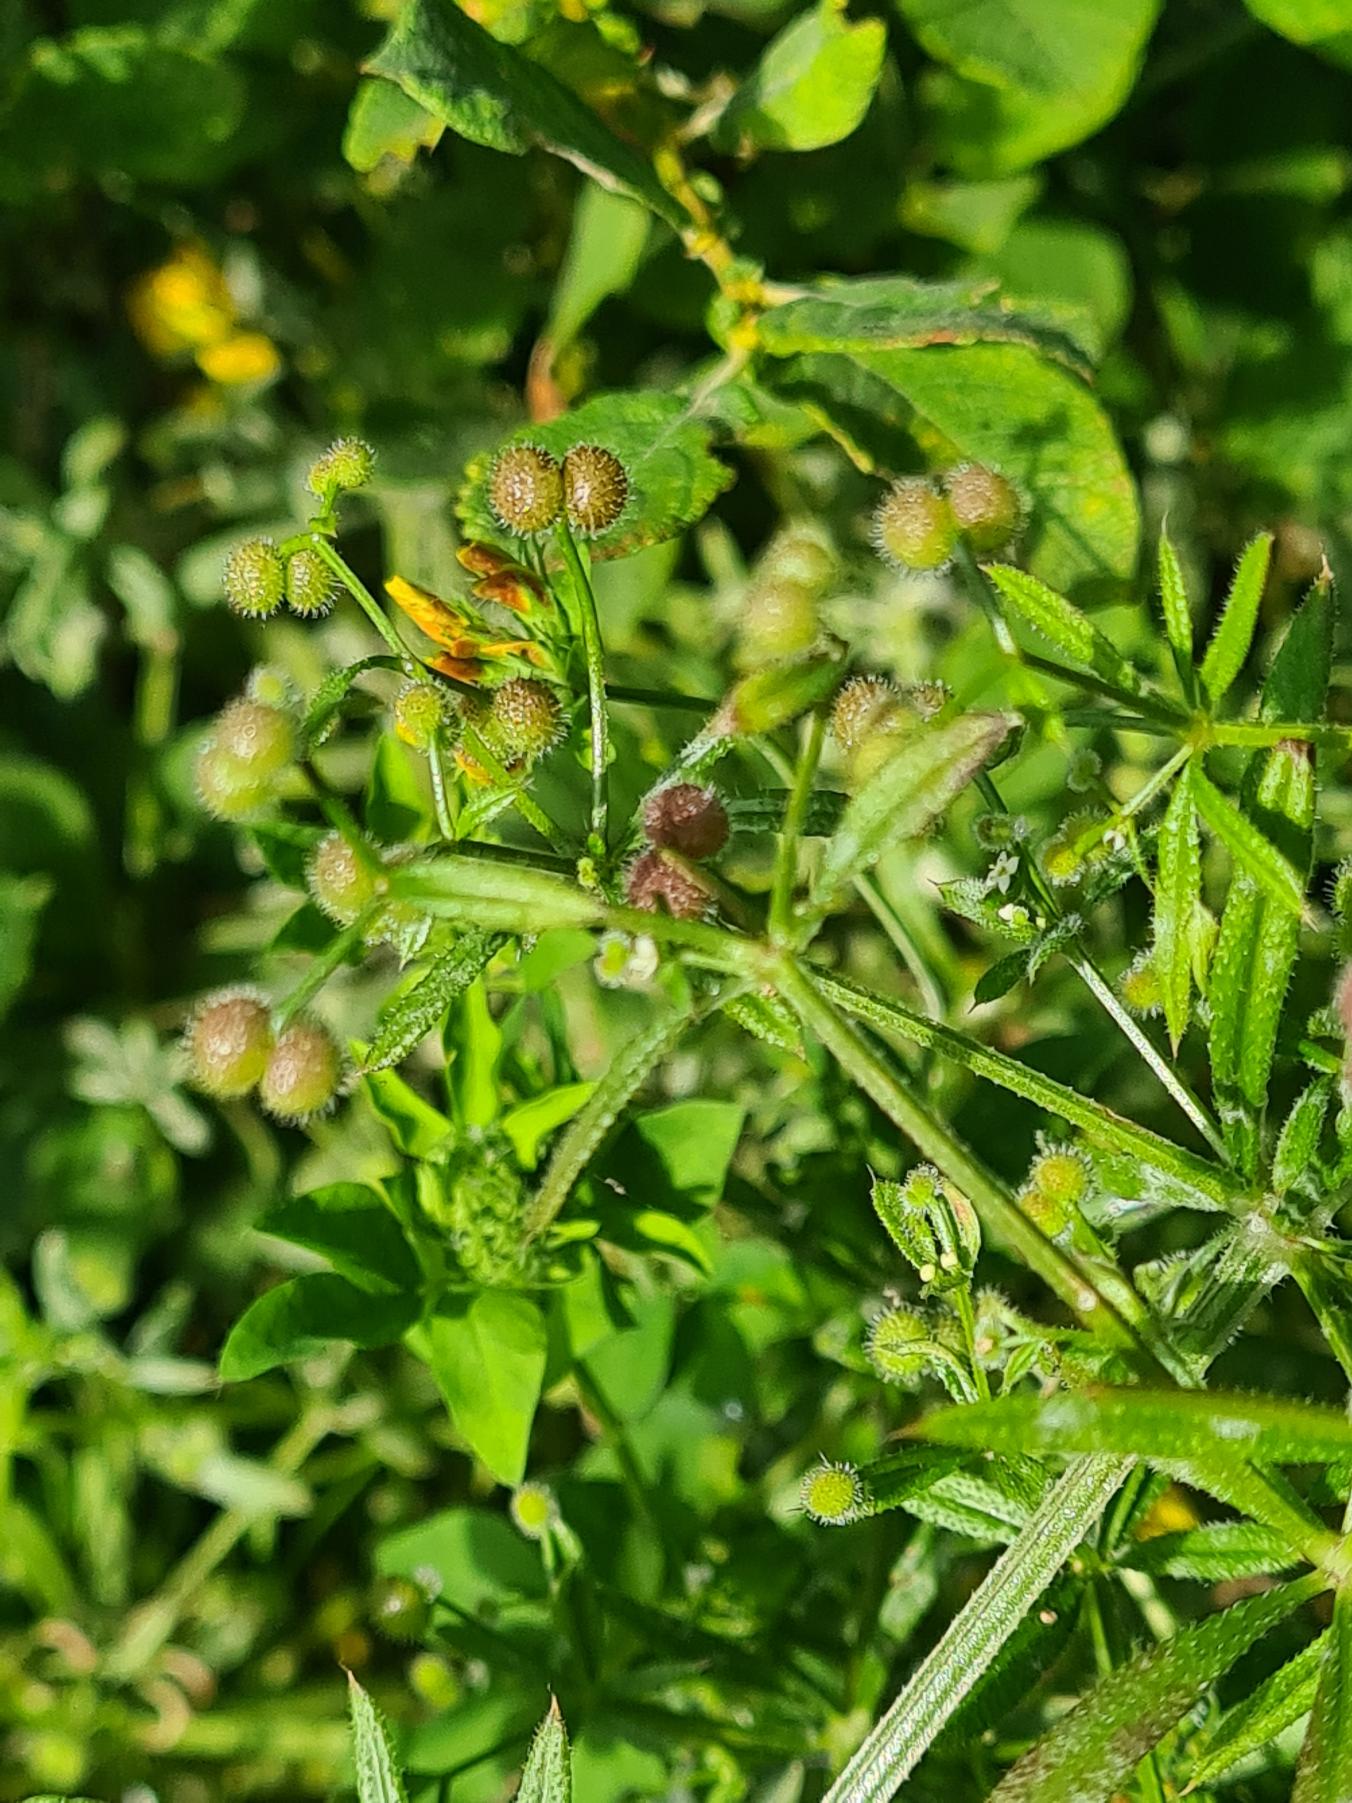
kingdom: Plantae
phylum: Tracheophyta
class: Magnoliopsida
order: Gentianales
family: Rubiaceae
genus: Galium
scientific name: Galium aparine
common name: Burre-snerre
